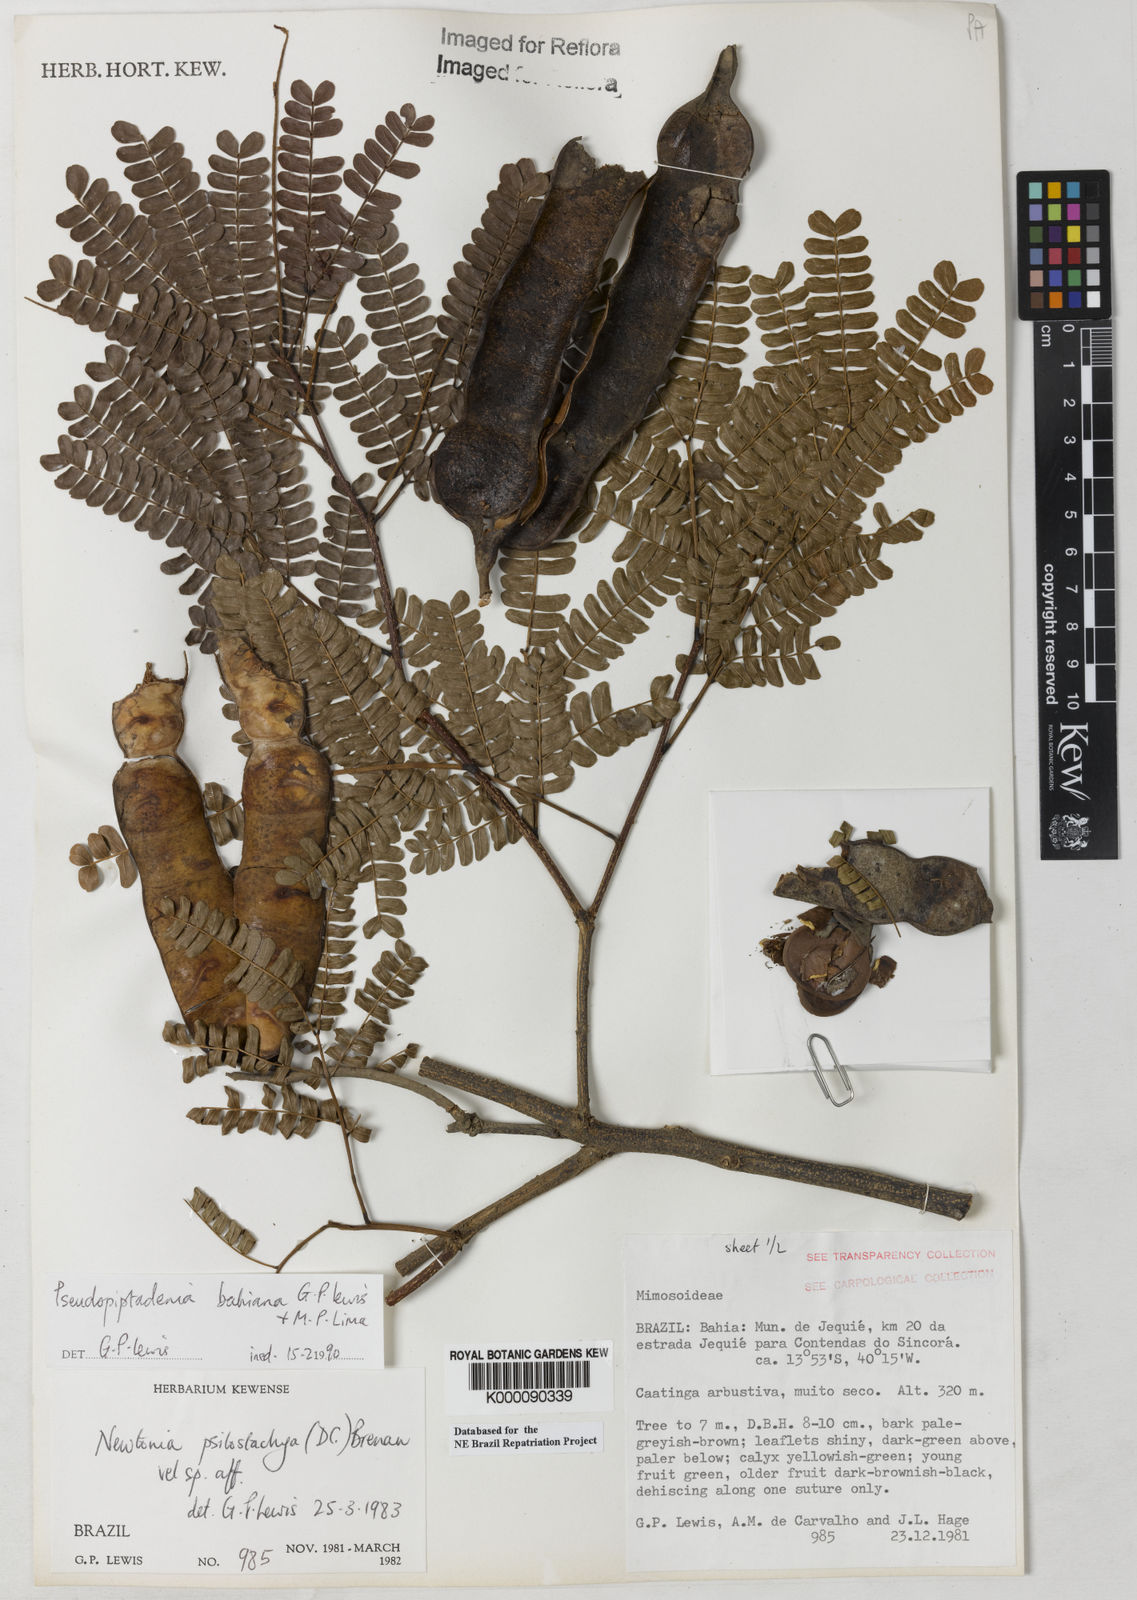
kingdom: Plantae
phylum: Tracheophyta
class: Magnoliopsida
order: Fabales
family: Fabaceae
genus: Pseudopiptadenia
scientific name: Pseudopiptadenia bahiana
